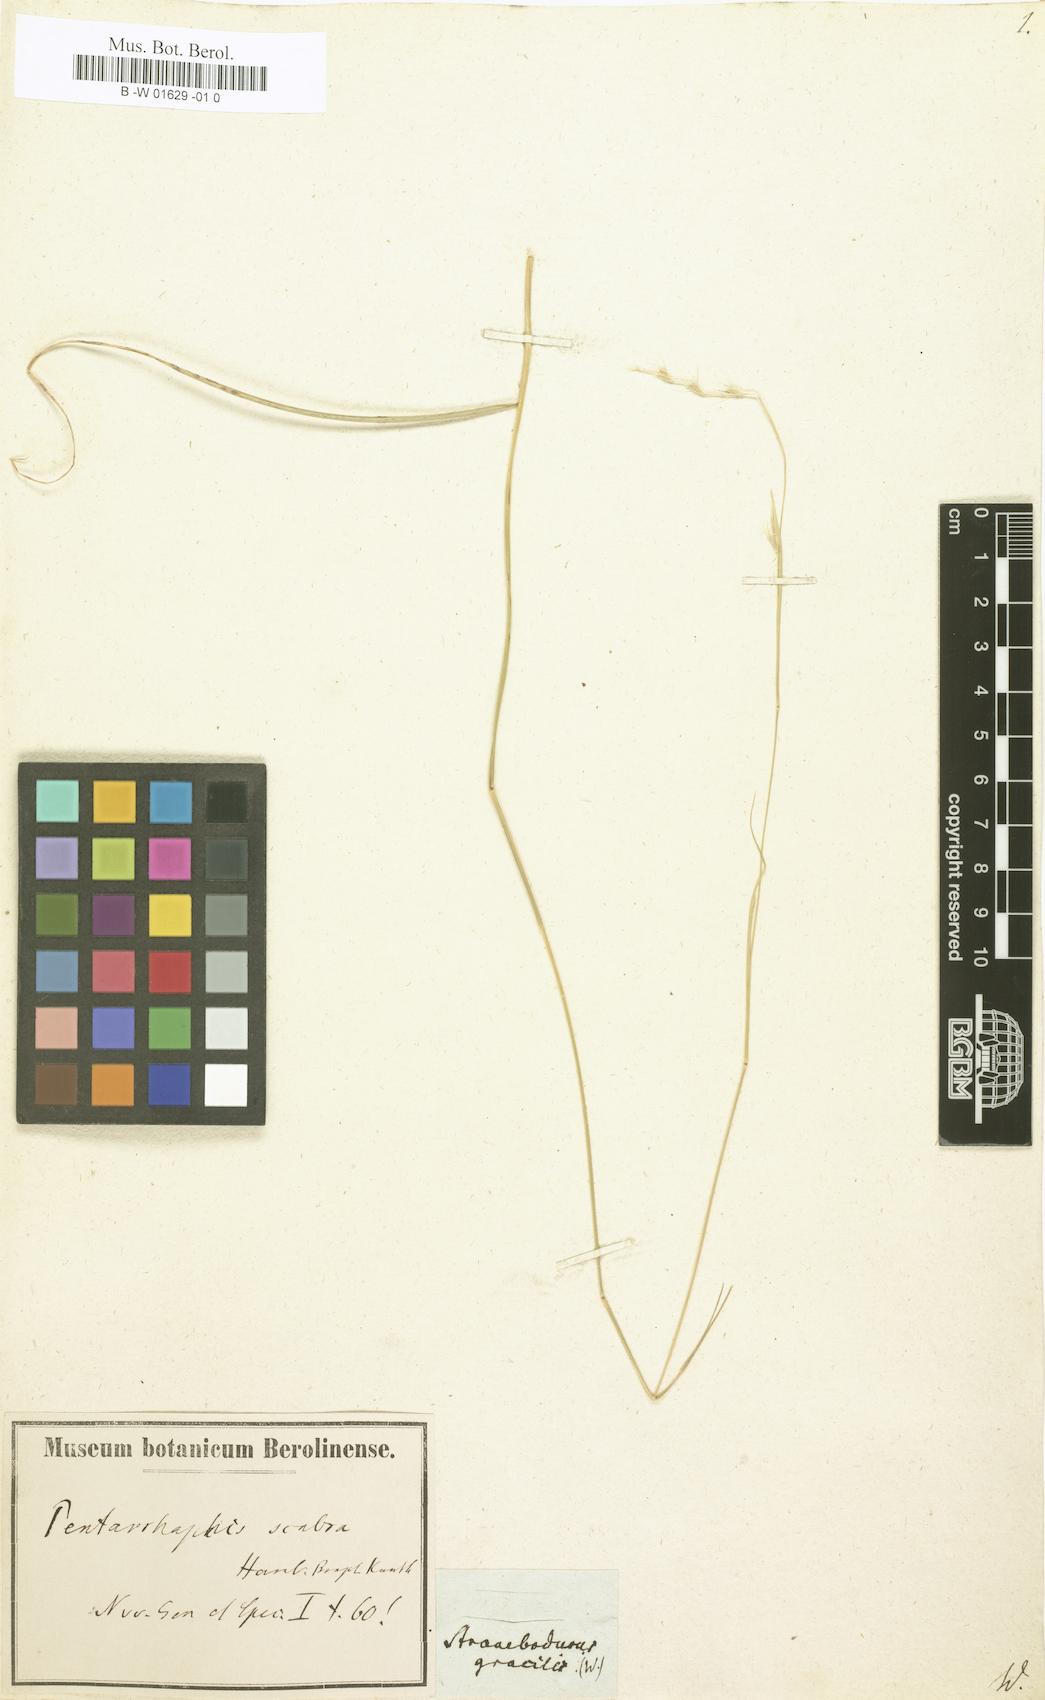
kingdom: Plantae
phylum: Tracheophyta
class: Liliopsida
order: Poales
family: Poaceae
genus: Bouteloua
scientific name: Bouteloua scabra
